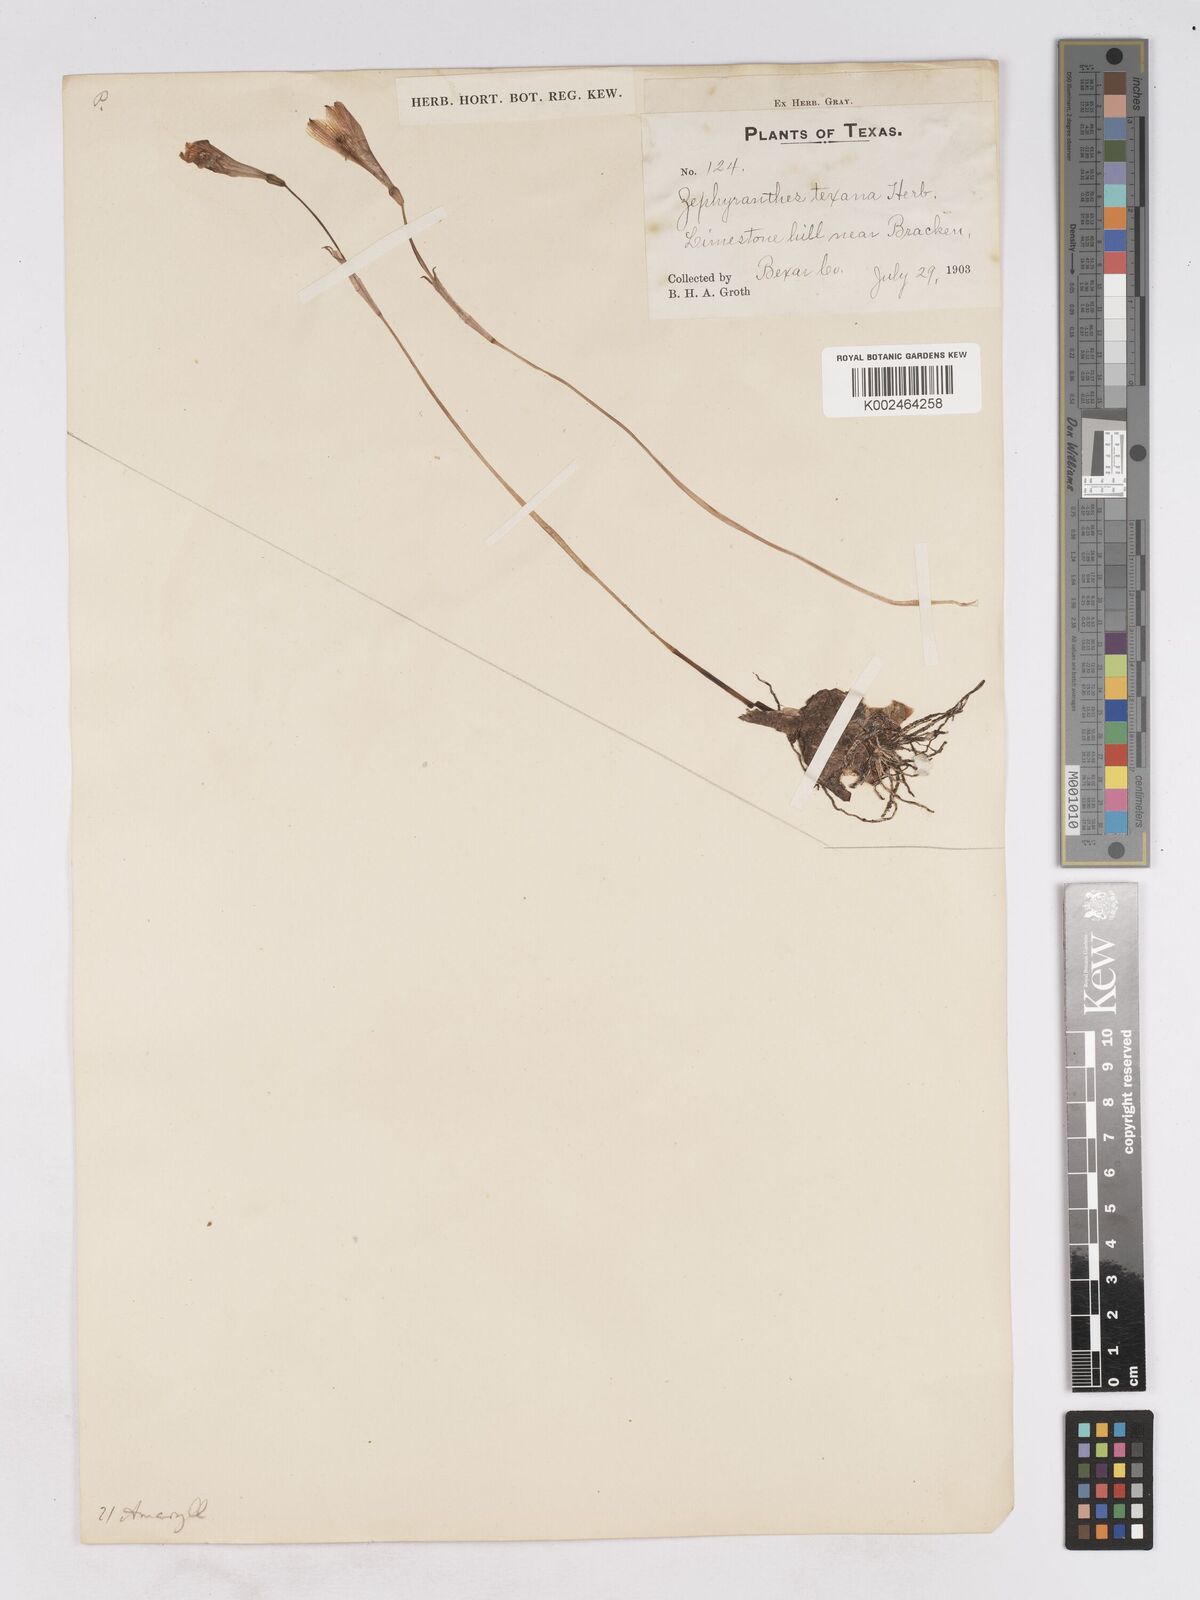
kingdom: Plantae
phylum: Tracheophyta
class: Liliopsida
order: Asparagales
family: Amaryllidaceae
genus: Zephyranthes
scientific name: Zephyranthes tubispatha
